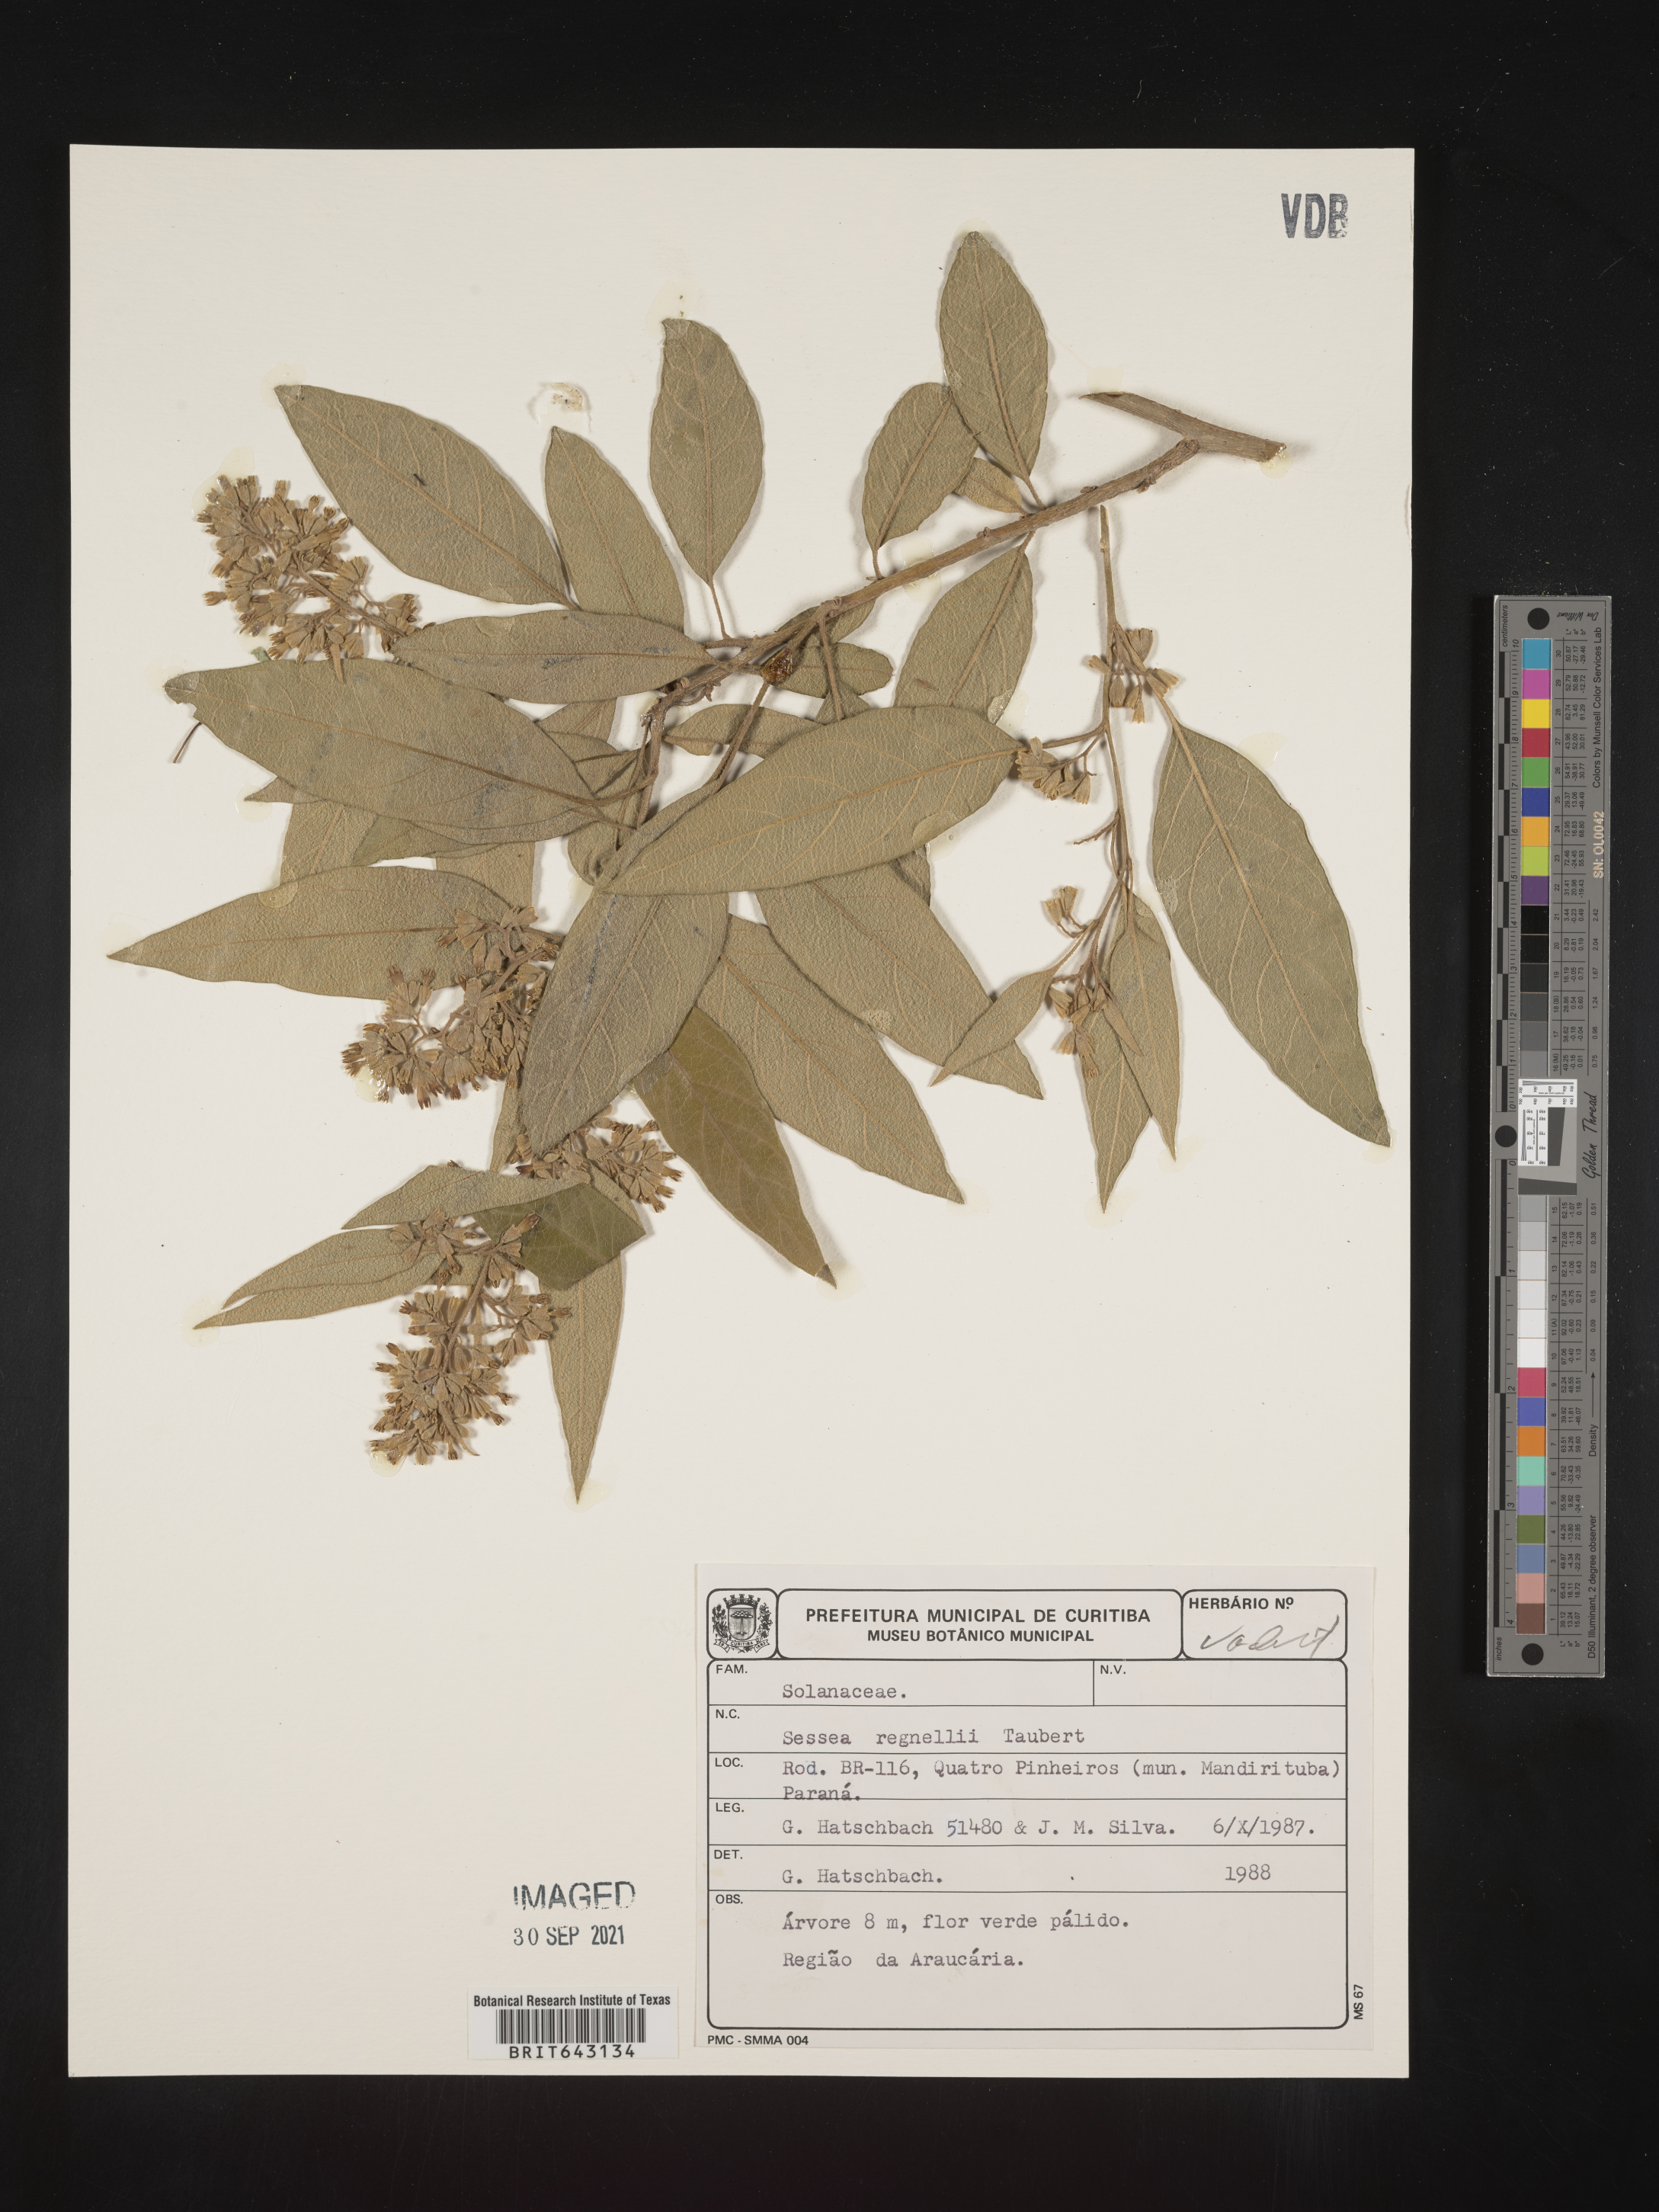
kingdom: Plantae
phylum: Tracheophyta
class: Magnoliopsida
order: Solanales
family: Solanaceae
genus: Sessea
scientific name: Sessea
